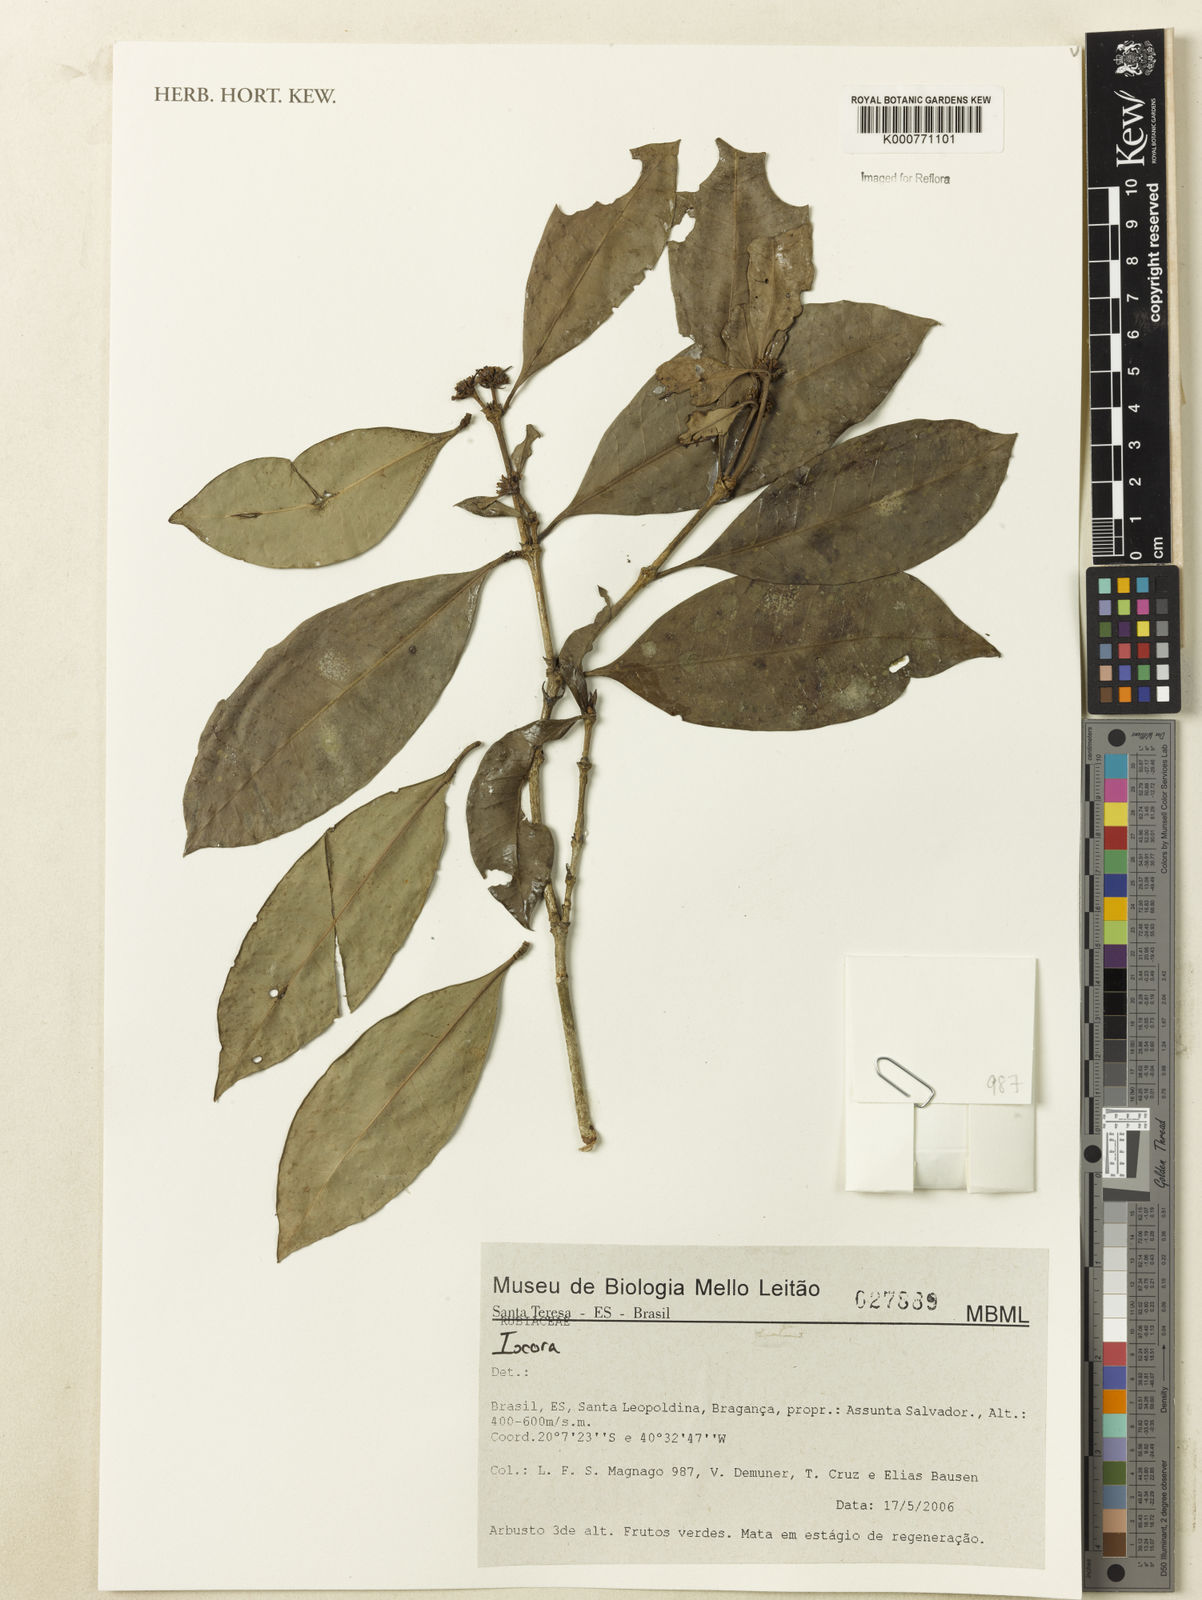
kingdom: Plantae
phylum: Tracheophyta
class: Magnoliopsida
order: Gentianales
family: Rubiaceae
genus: Ixora
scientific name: Ixora
